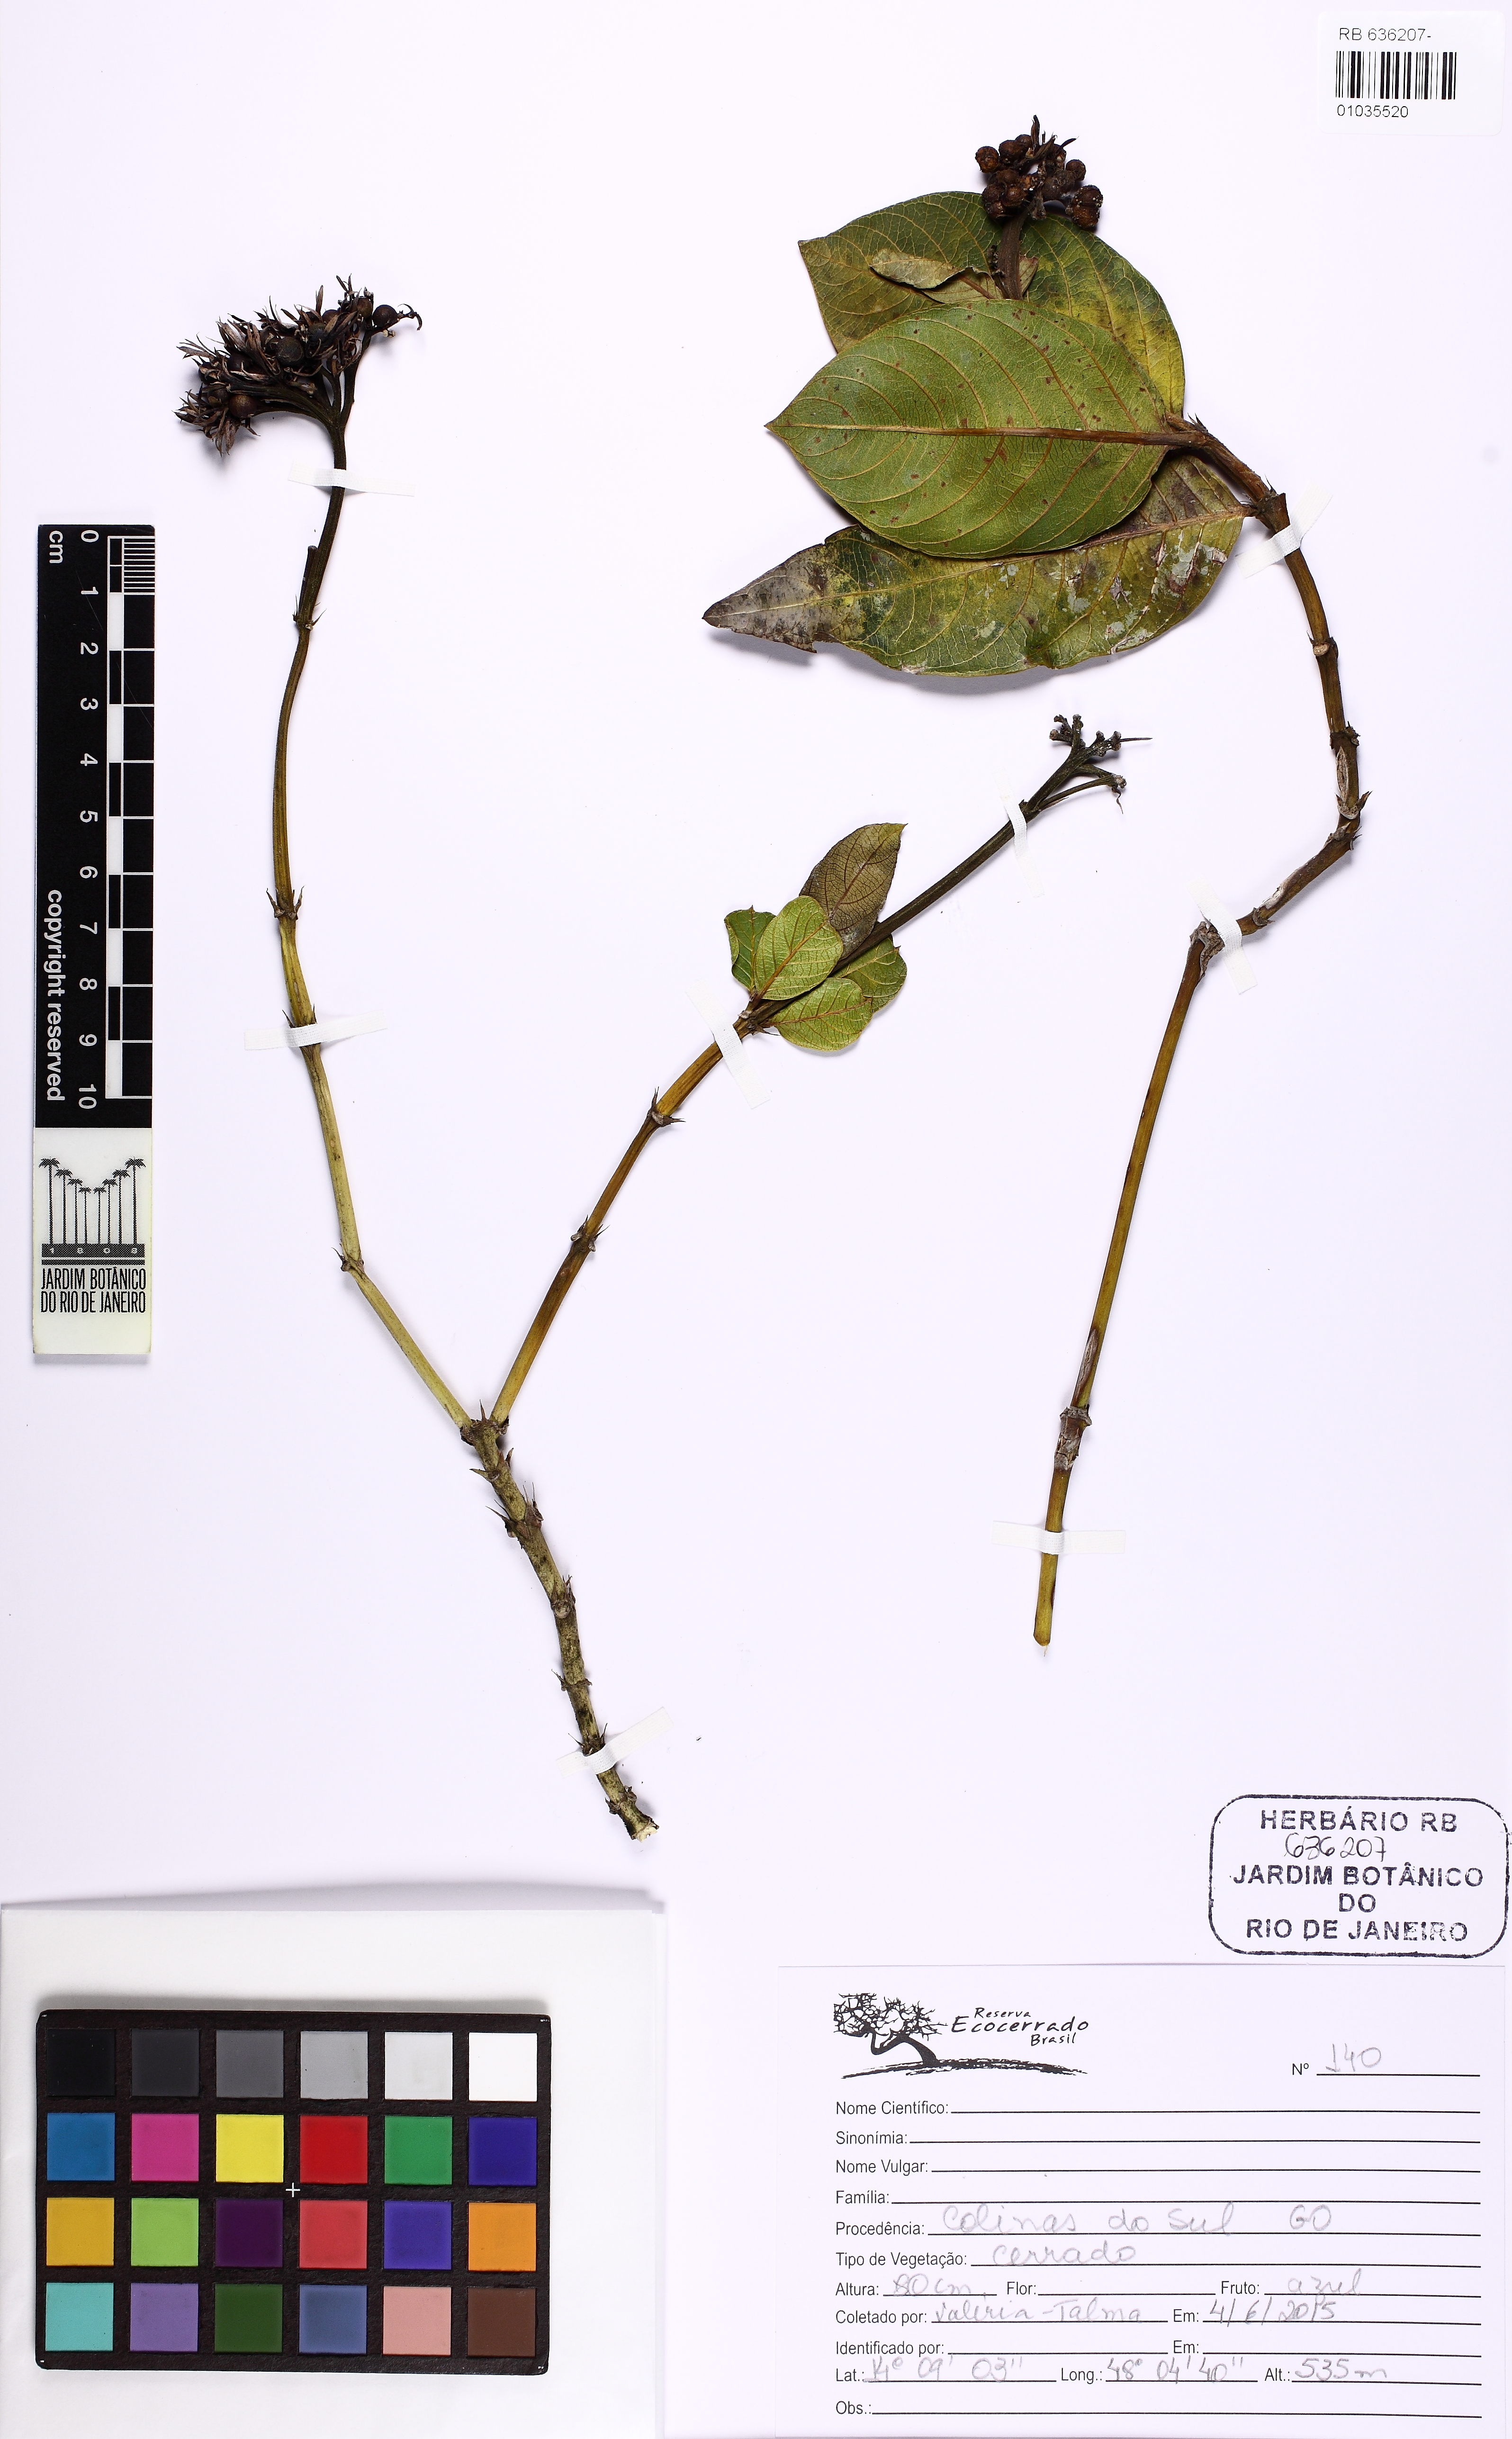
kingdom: Plantae
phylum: Tracheophyta
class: Magnoliopsida
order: Gentianales
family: Rubiaceae
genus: Palicourea
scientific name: Palicourea
